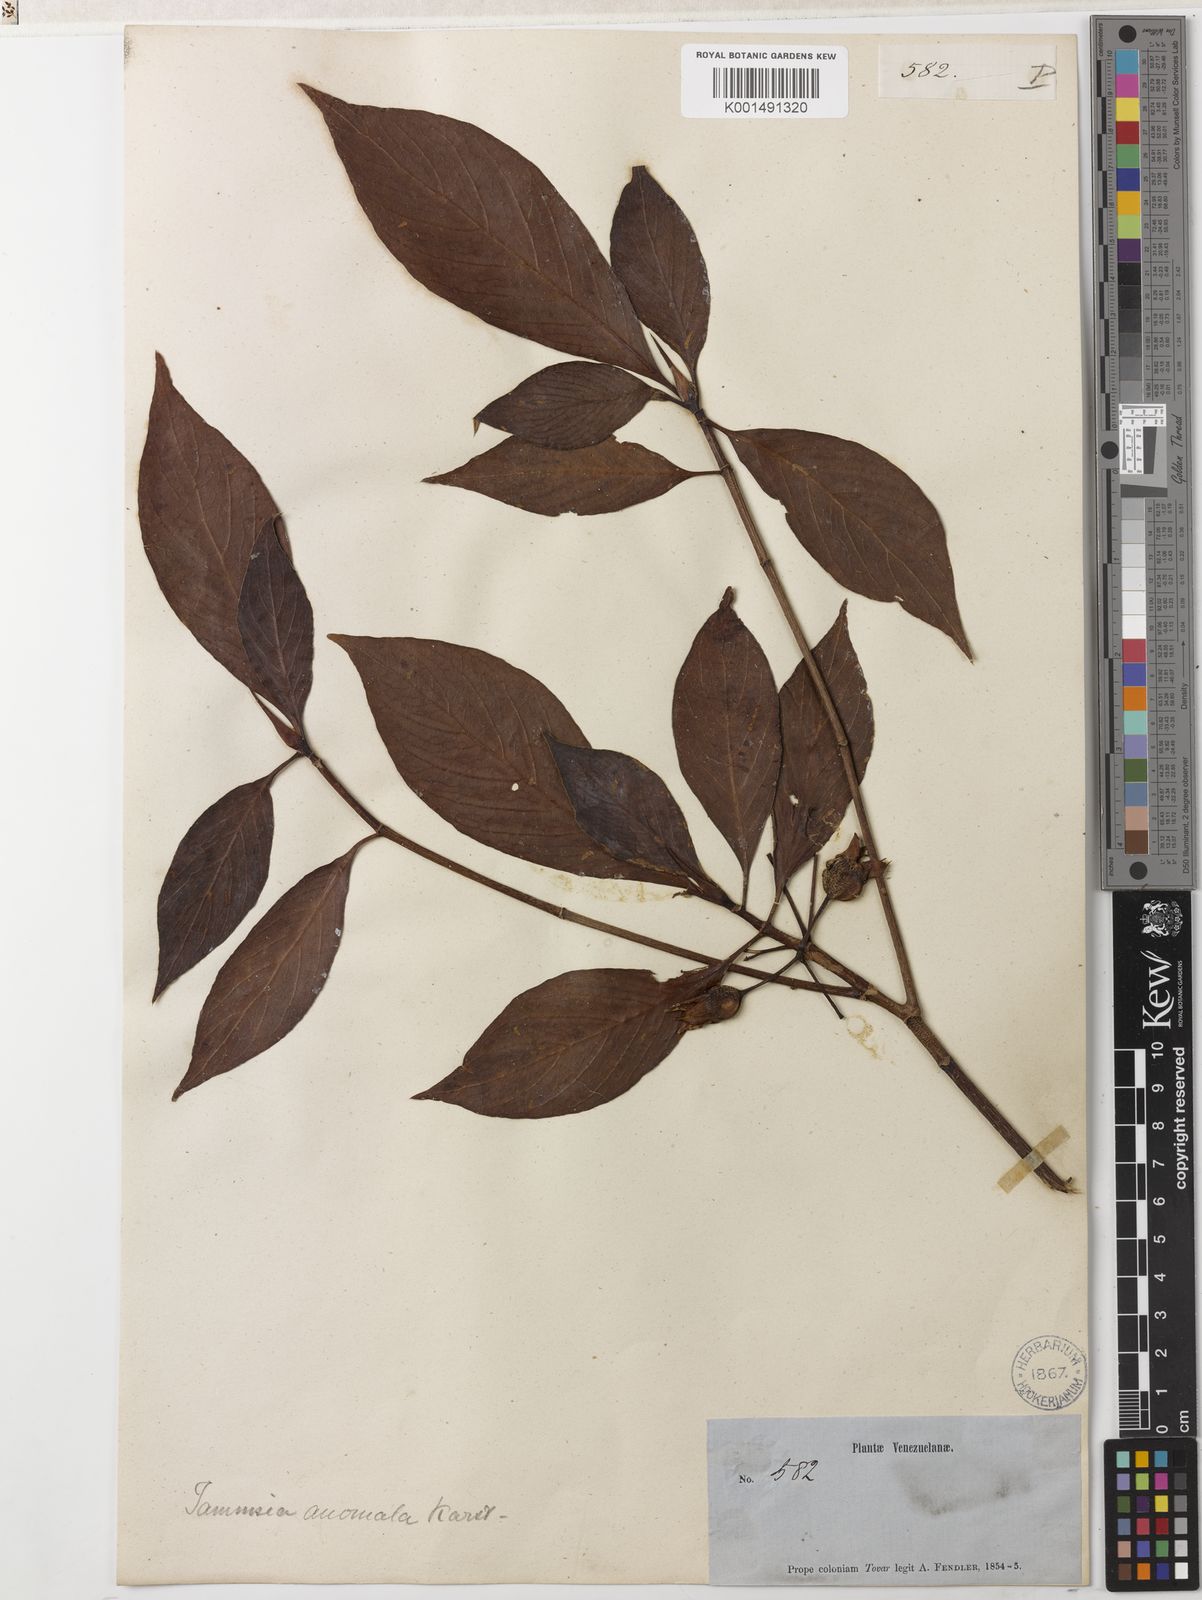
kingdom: Plantae
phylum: Tracheophyta
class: Magnoliopsida
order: Gentianales
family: Rubiaceae
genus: Tammsia
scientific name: Tammsia anomala
